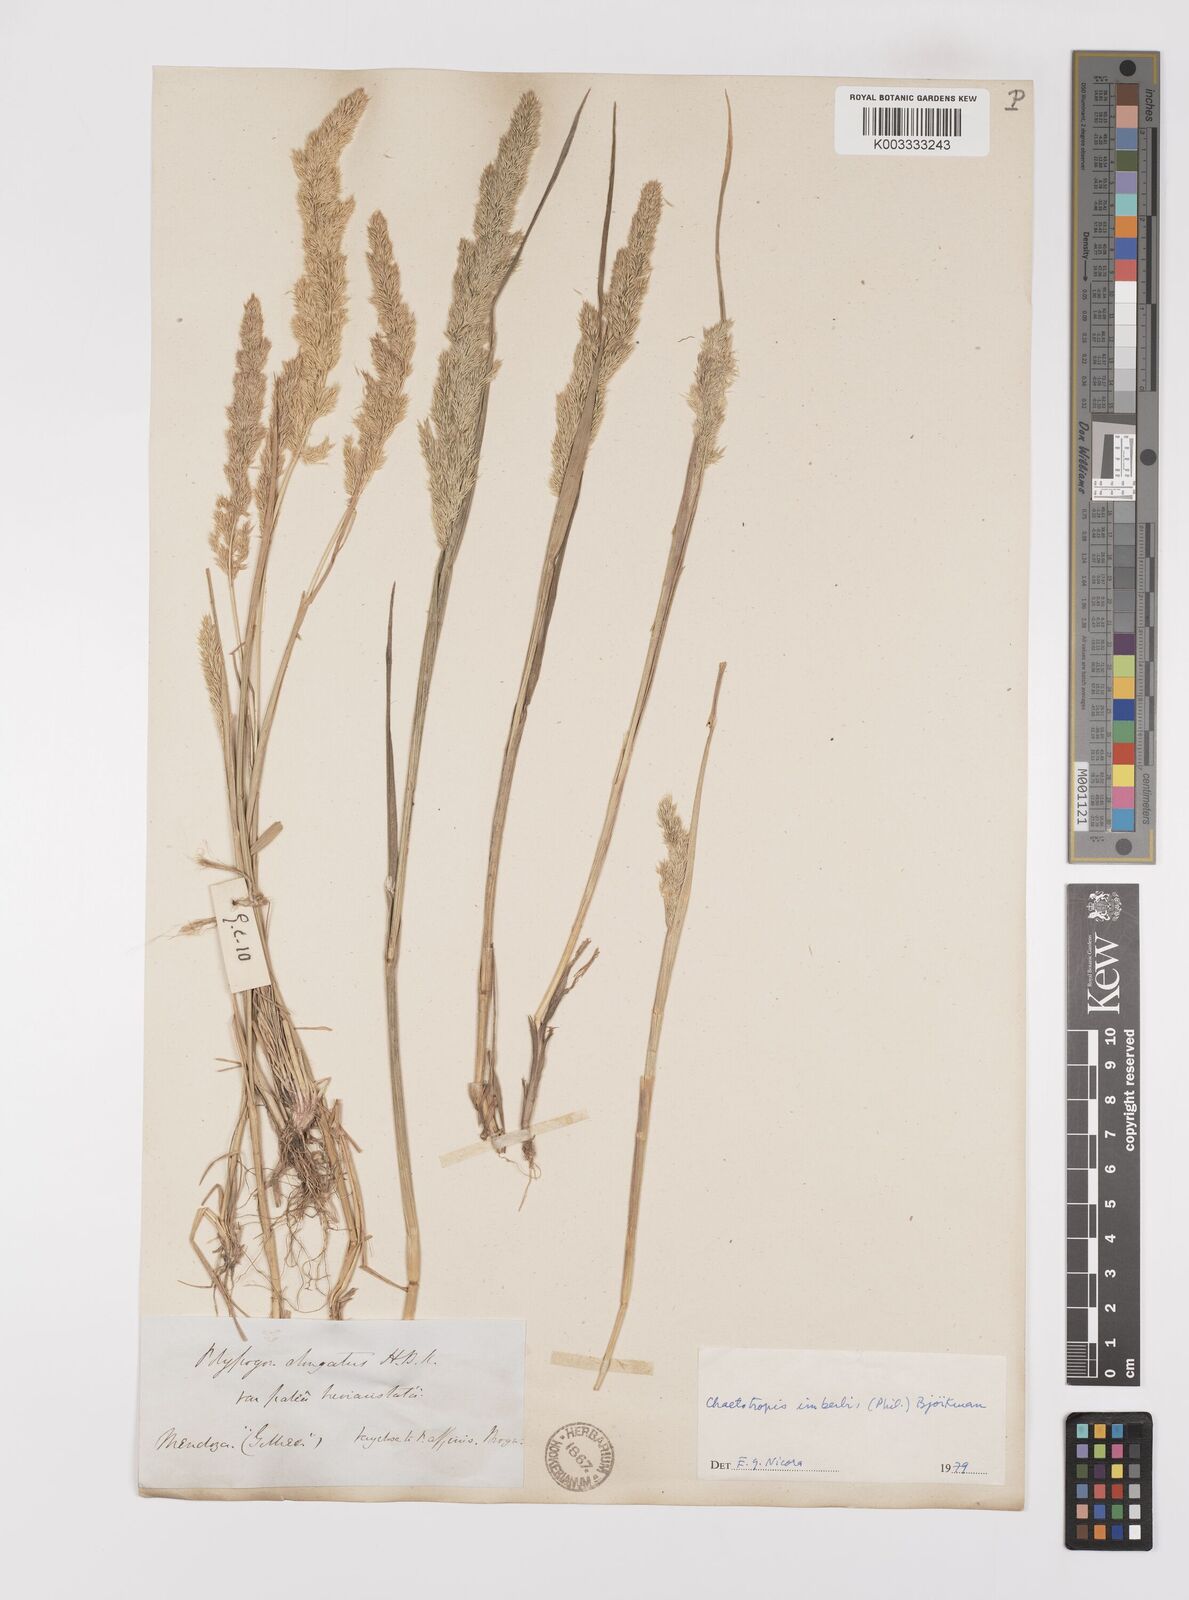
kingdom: Plantae
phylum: Tracheophyta
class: Liliopsida
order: Poales
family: Poaceae
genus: Polypogon
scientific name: Polypogon imberbis
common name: Beardless rabbitsfoot grass
